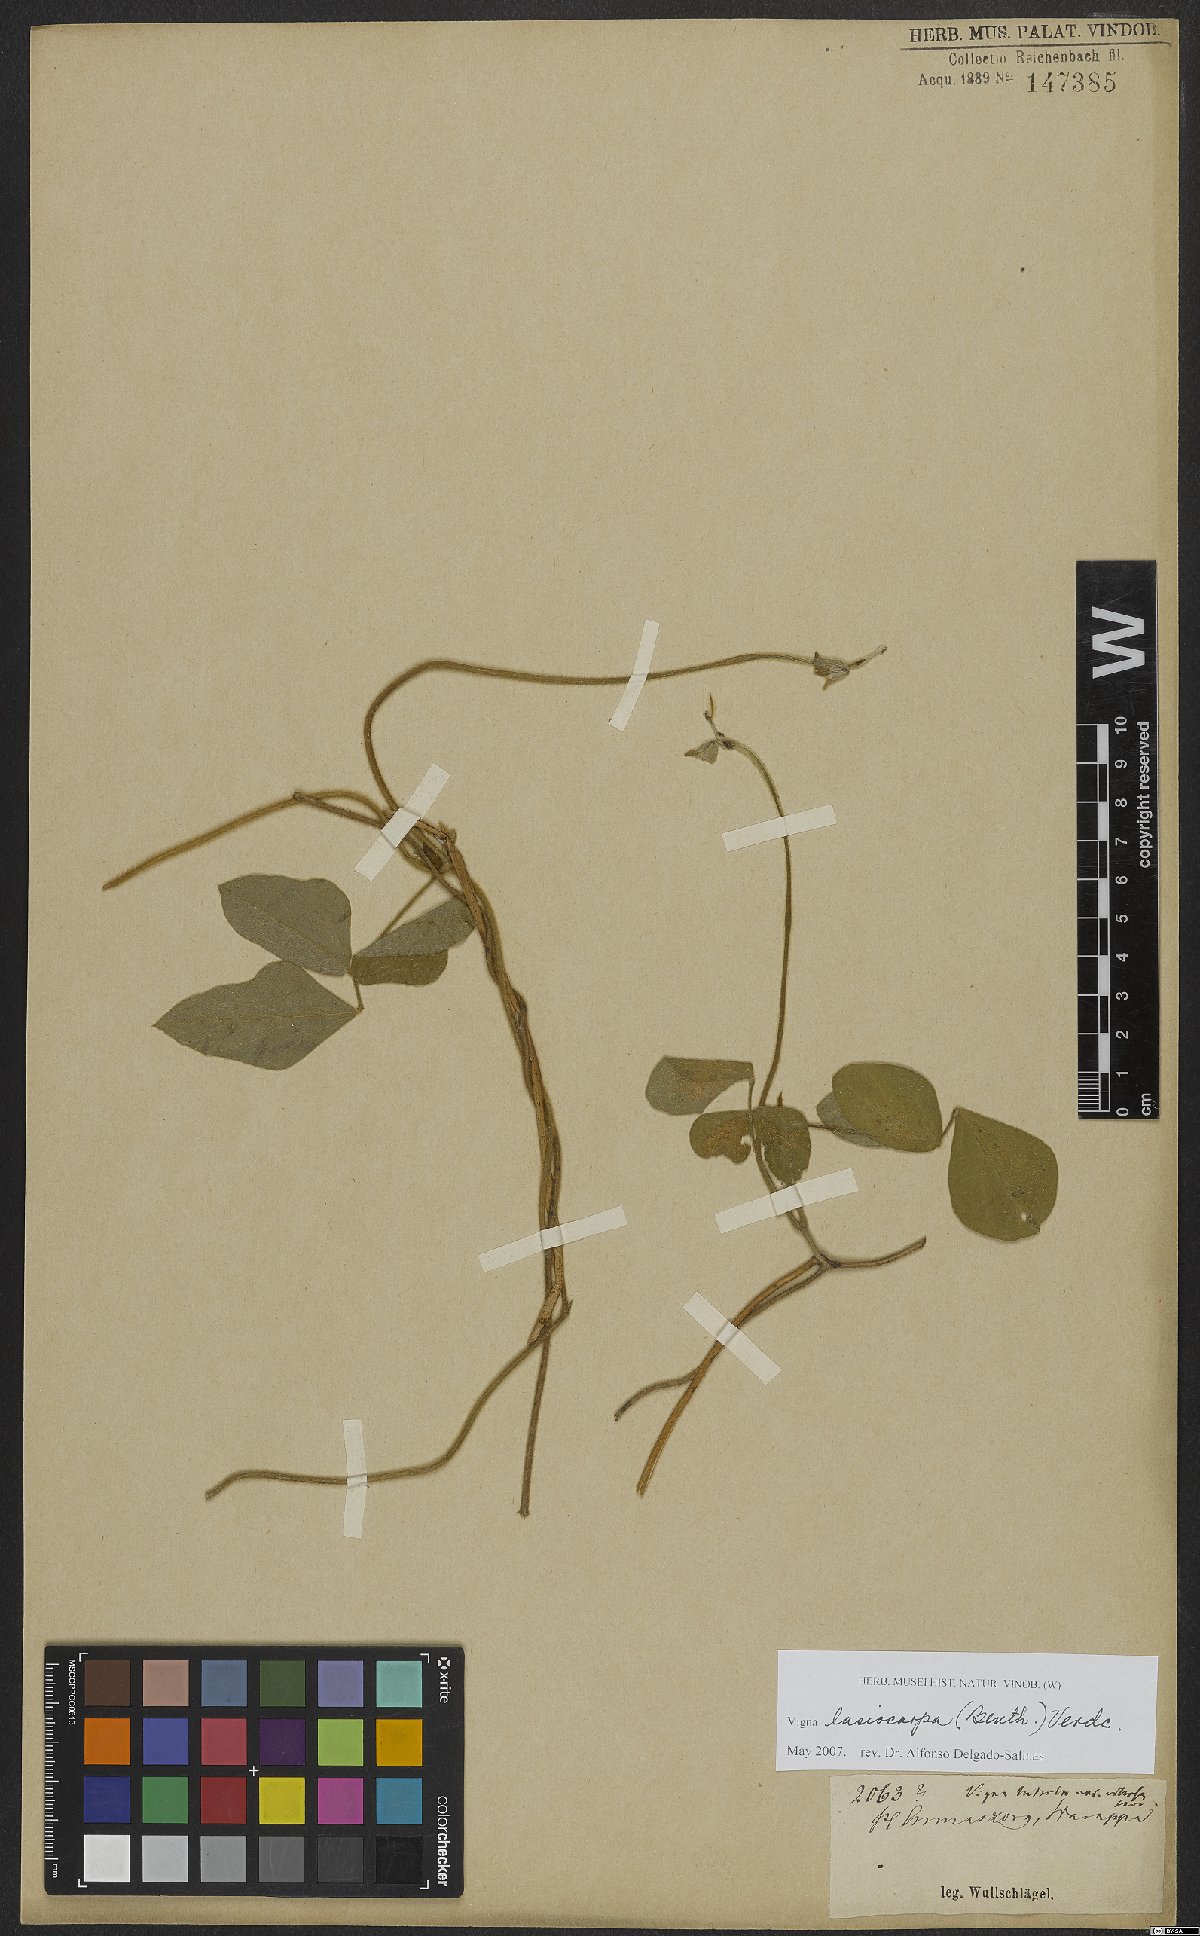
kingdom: Plantae
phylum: Tracheophyta
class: Magnoliopsida
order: Fabales
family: Fabaceae
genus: Vigna
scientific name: Vigna lasiocarpa
